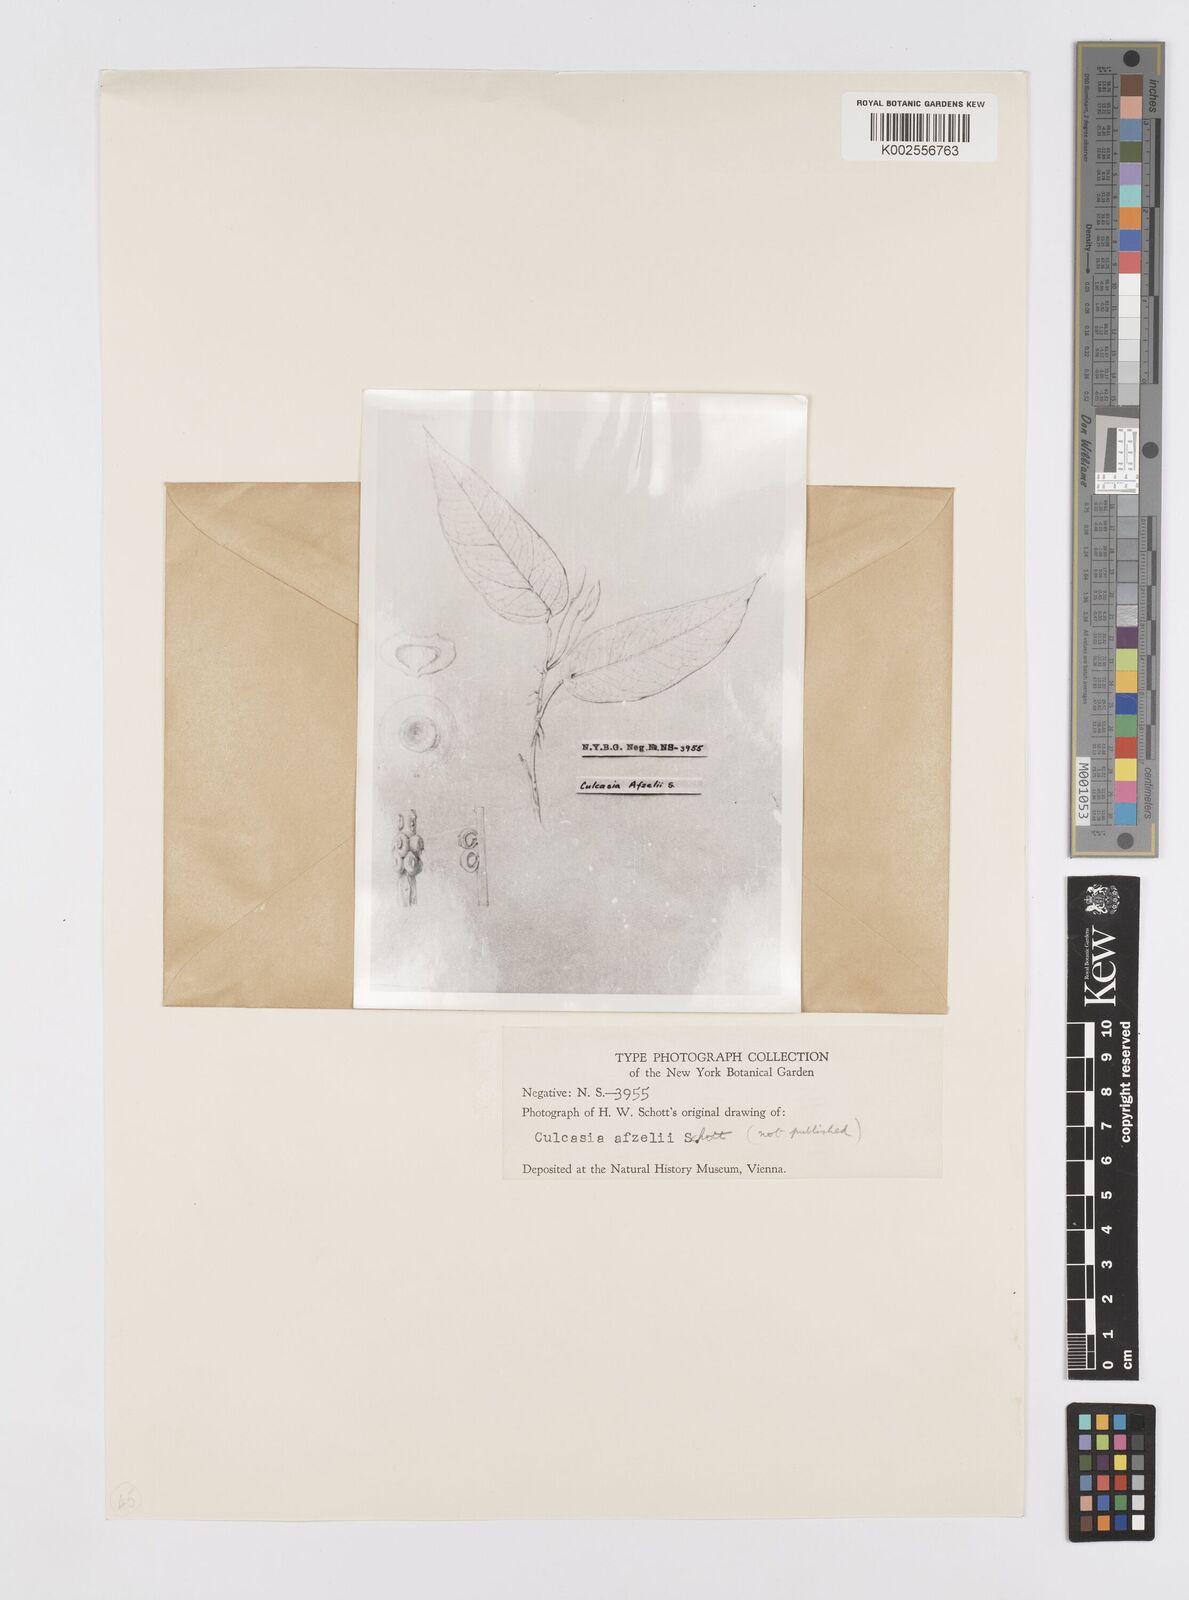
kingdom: Plantae
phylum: Tracheophyta
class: Liliopsida
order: Alismatales
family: Araceae
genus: Culcasia
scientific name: Culcasia
